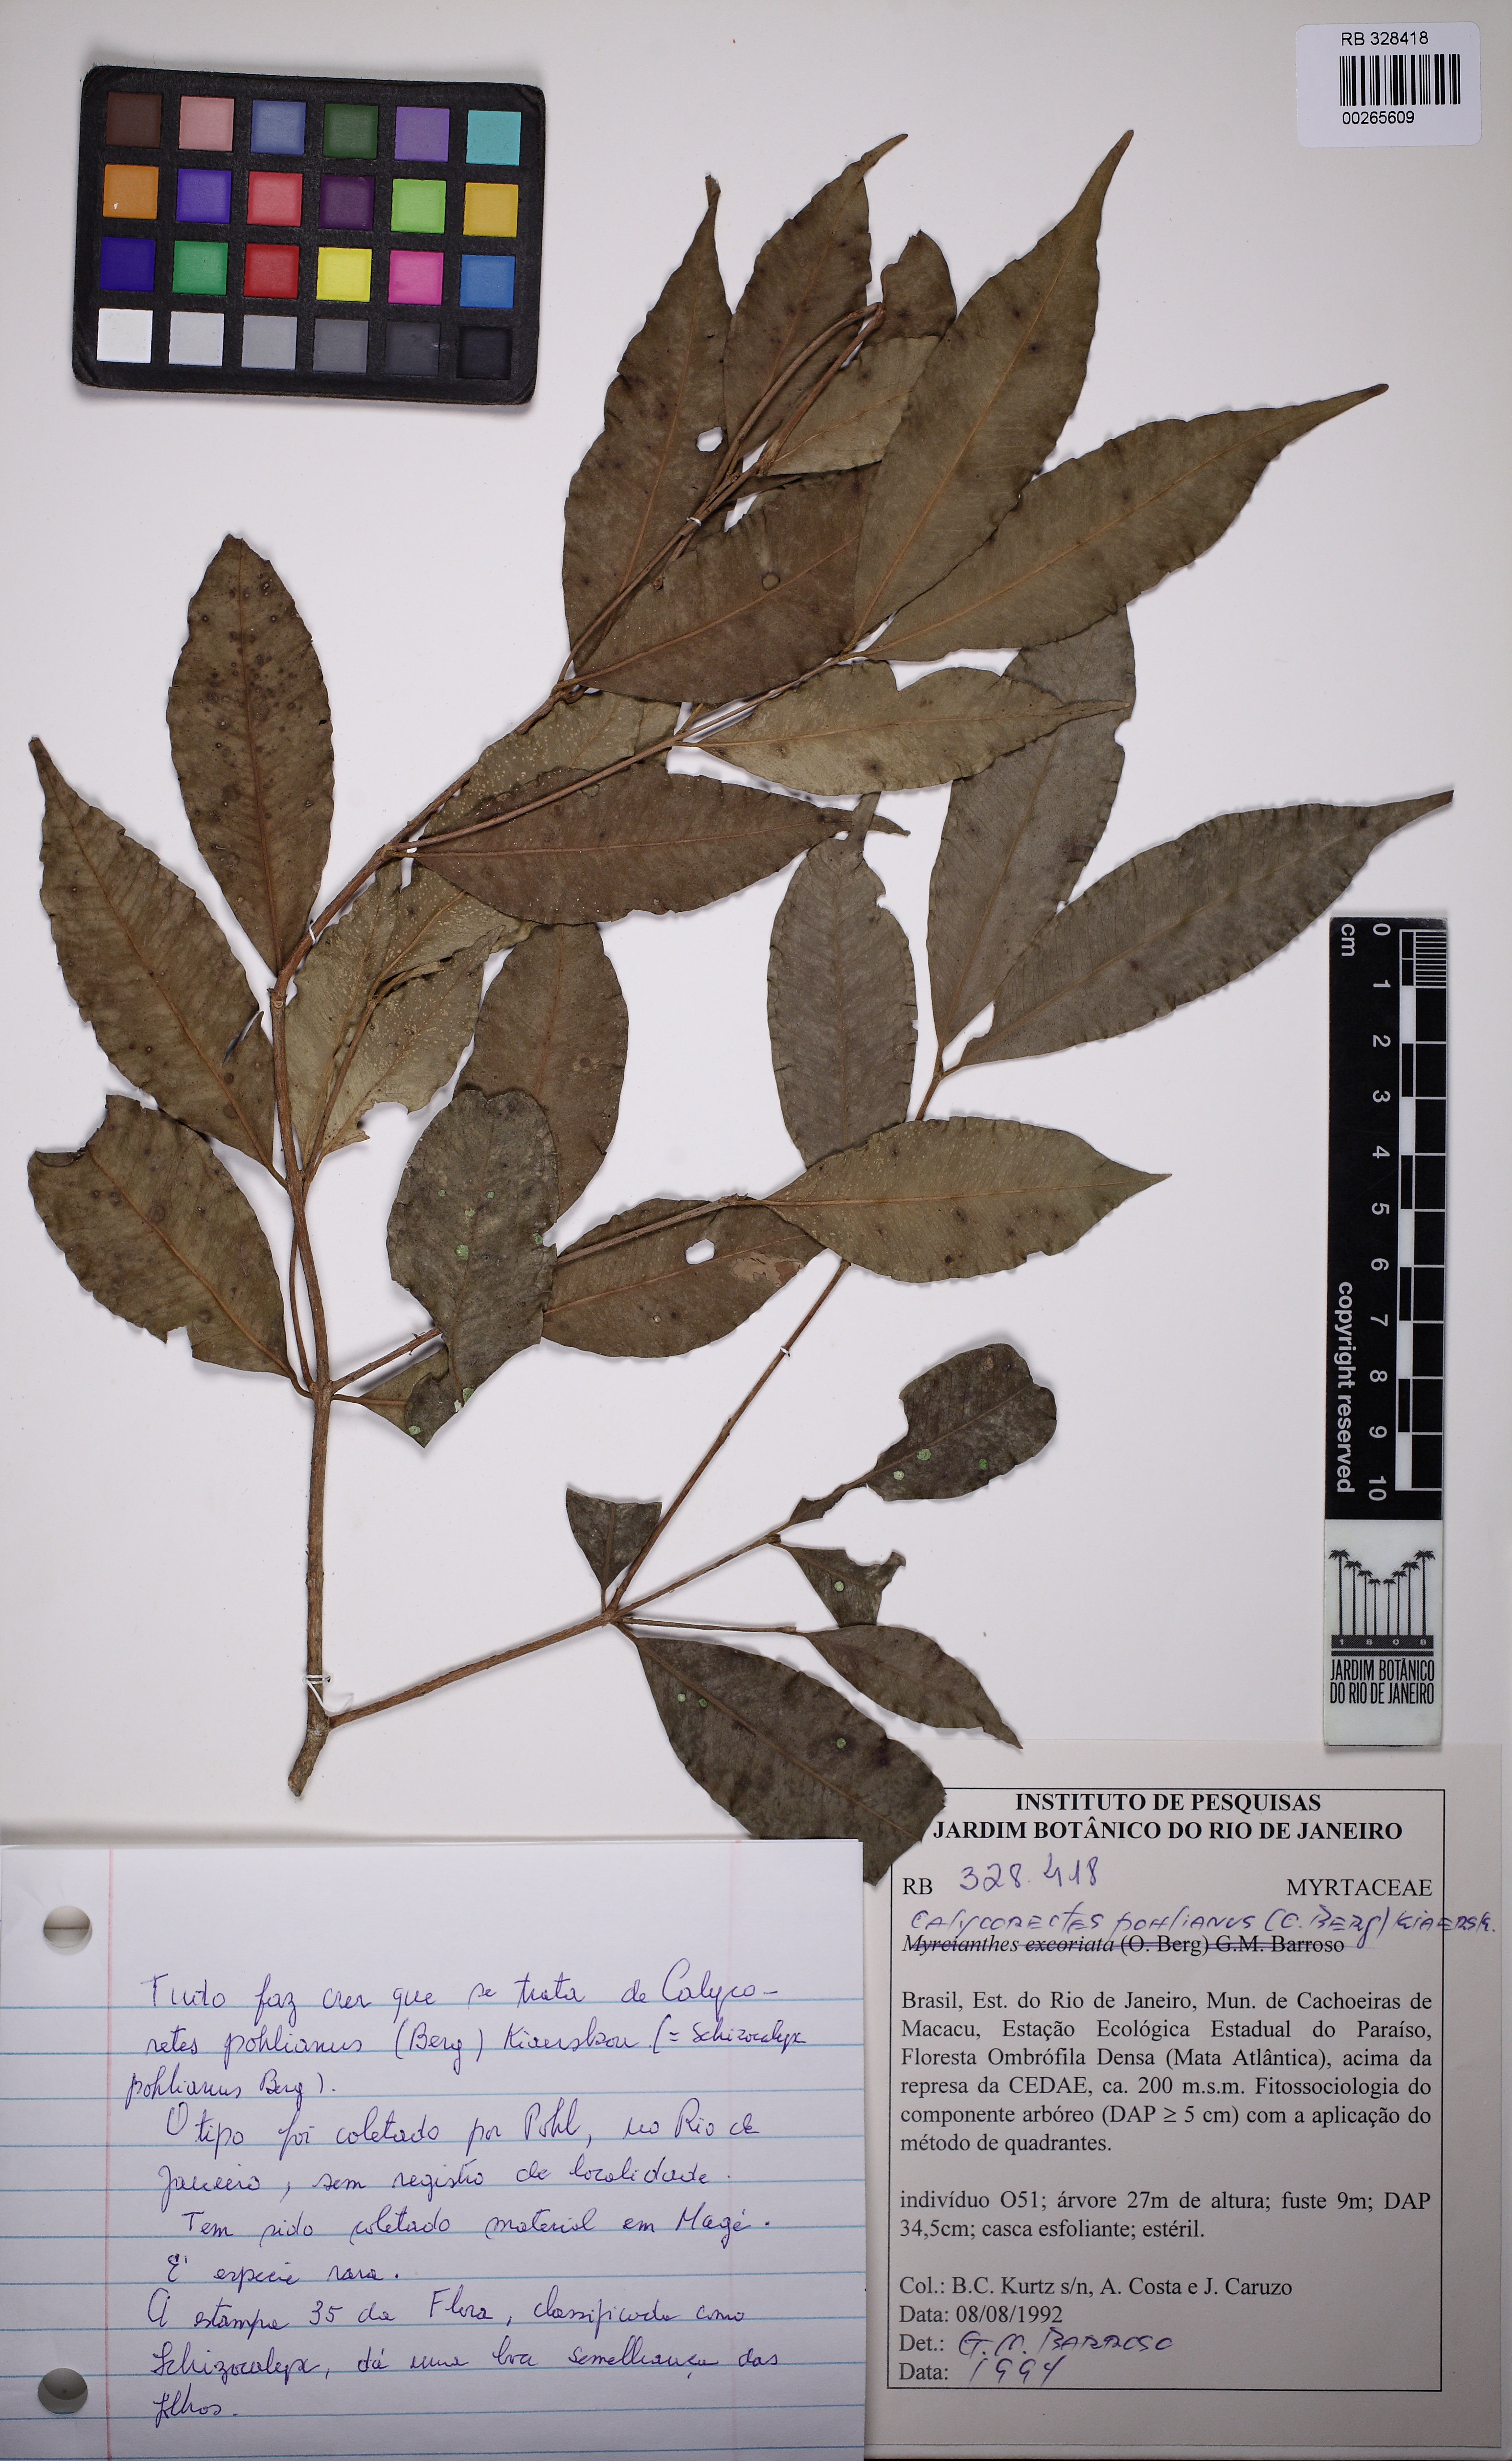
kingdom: Plantae
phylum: Tracheophyta
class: Magnoliopsida
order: Myrtales
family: Myrtaceae
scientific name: Myrtaceae
